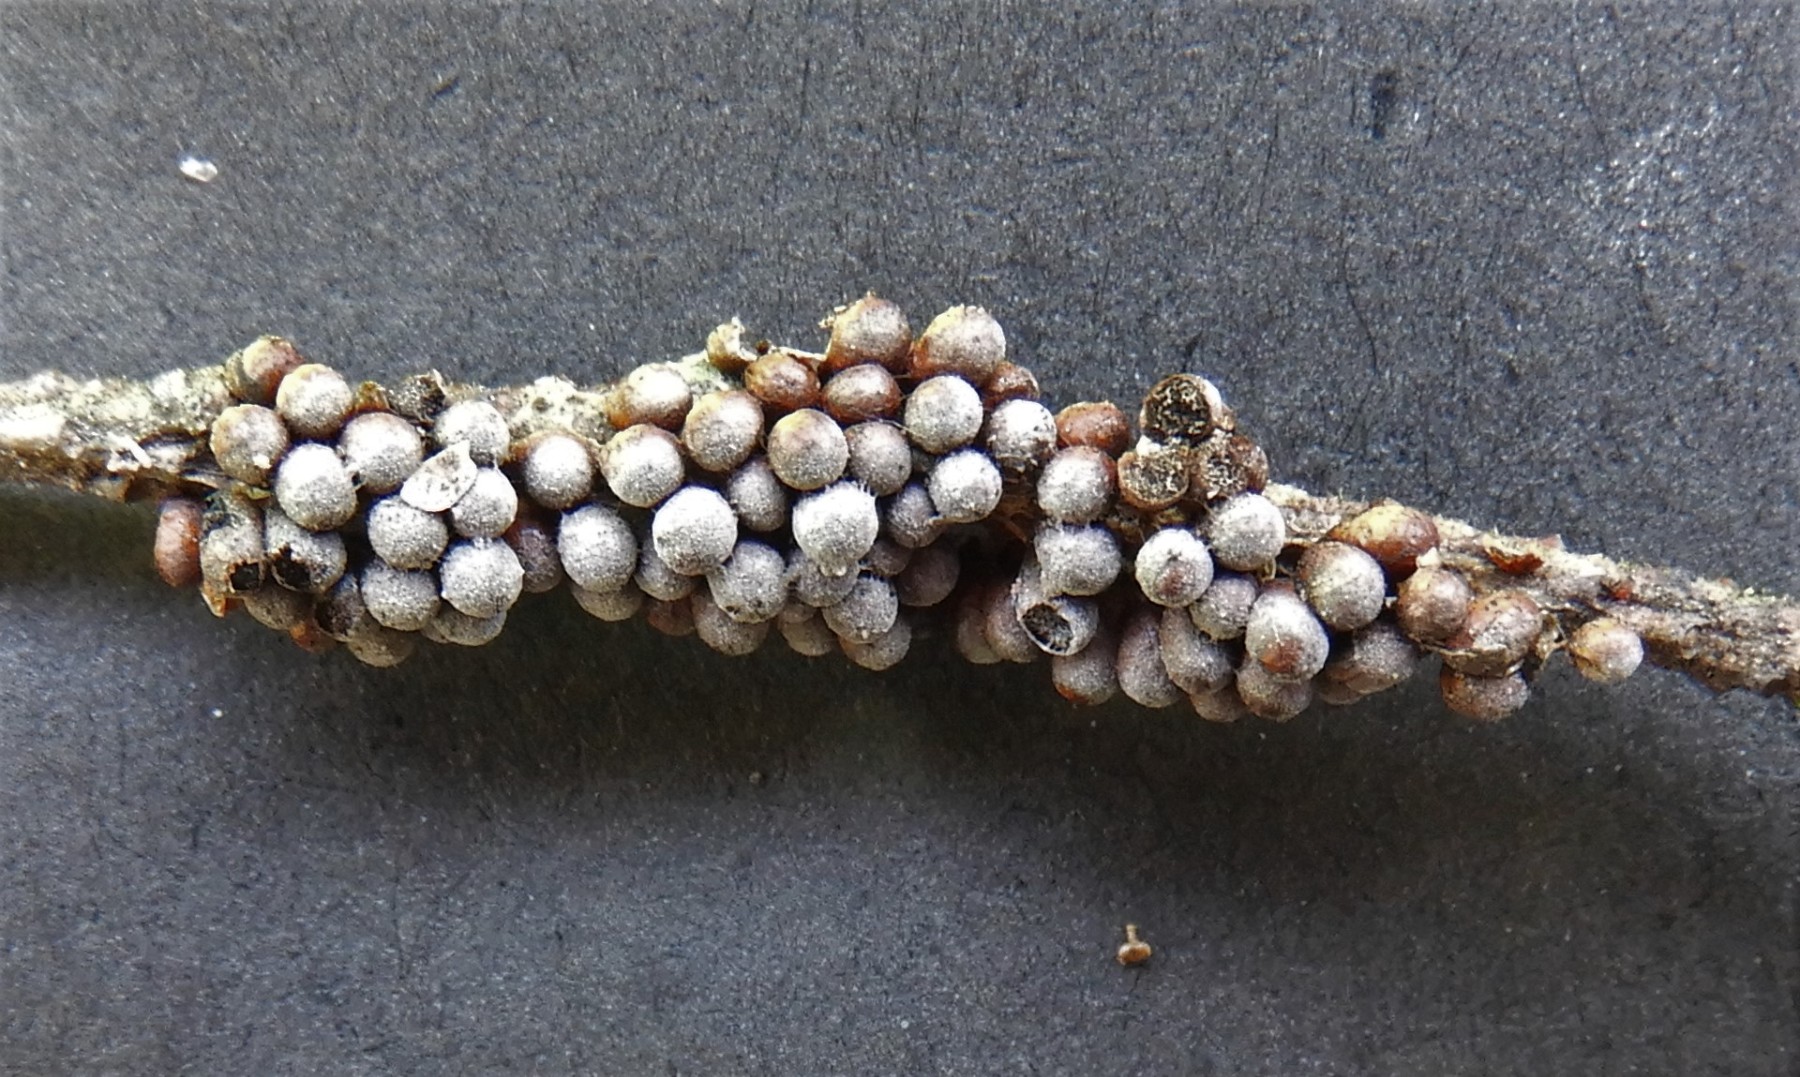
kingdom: Protozoa
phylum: Mycetozoa
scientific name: Mycetozoa
